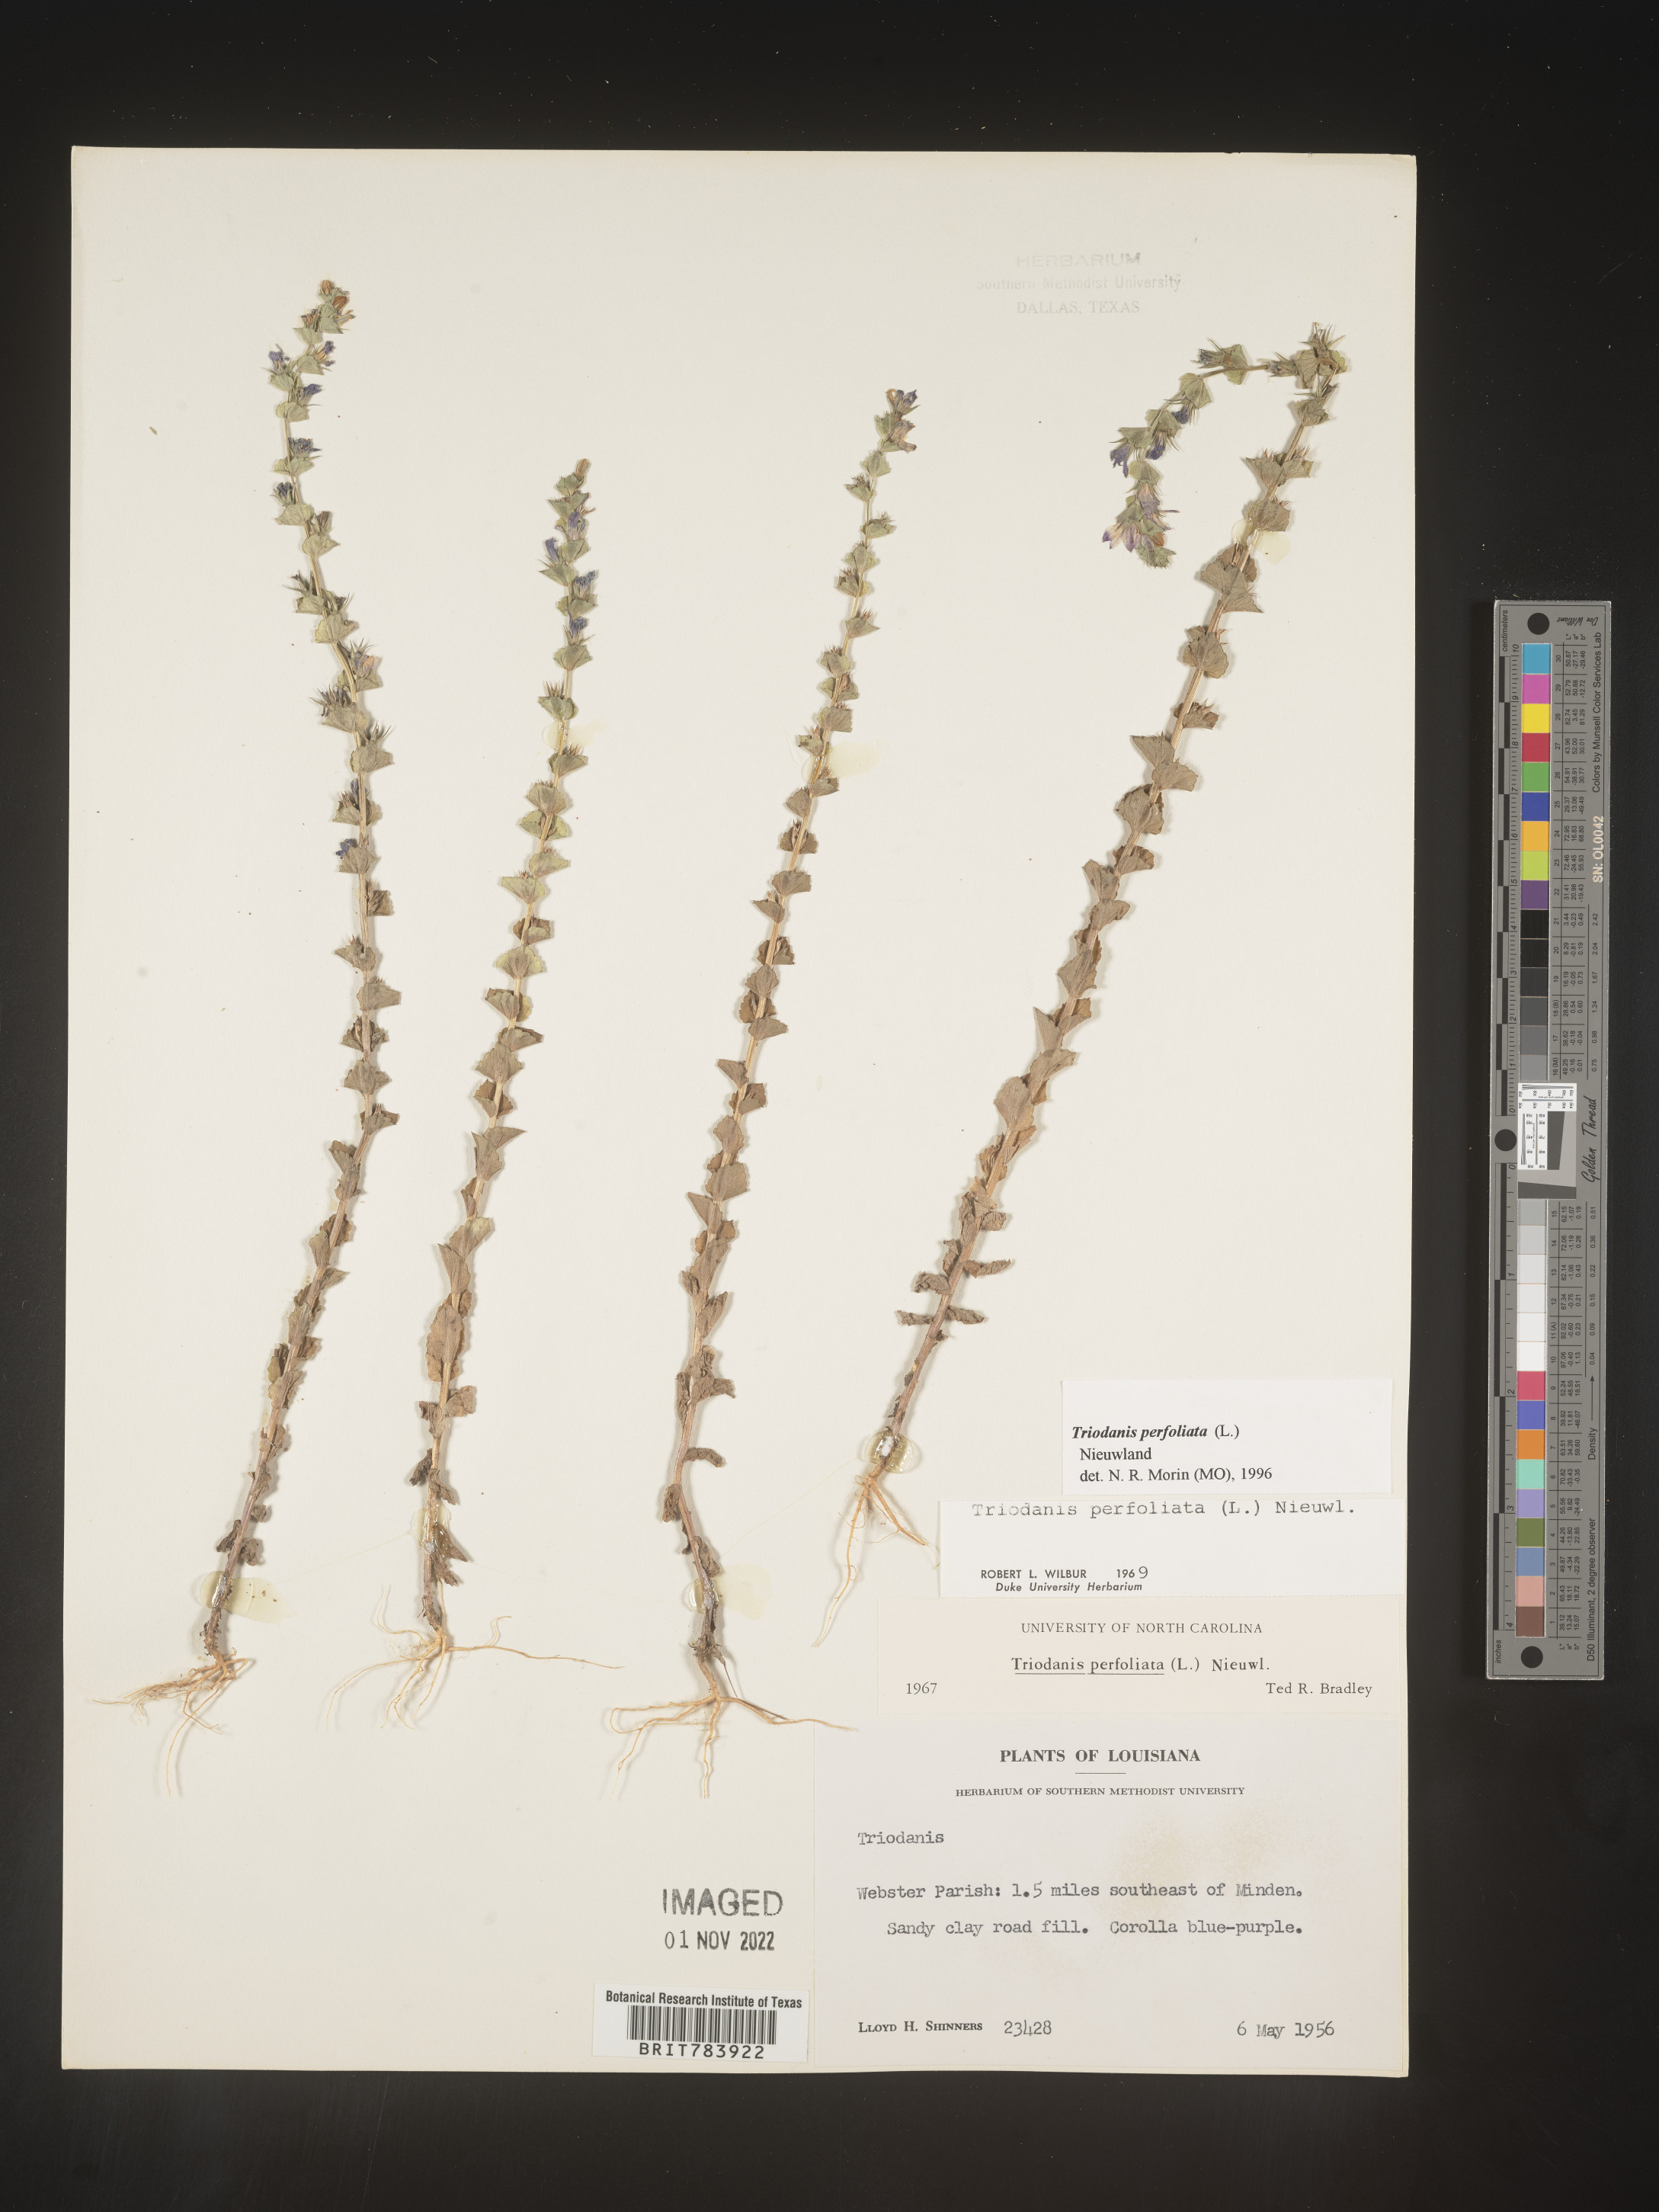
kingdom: Plantae
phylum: Tracheophyta
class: Magnoliopsida
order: Asterales
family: Campanulaceae
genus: Triodanis
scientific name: Triodanis perfoliata
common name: Clasping venus' looking-glass
